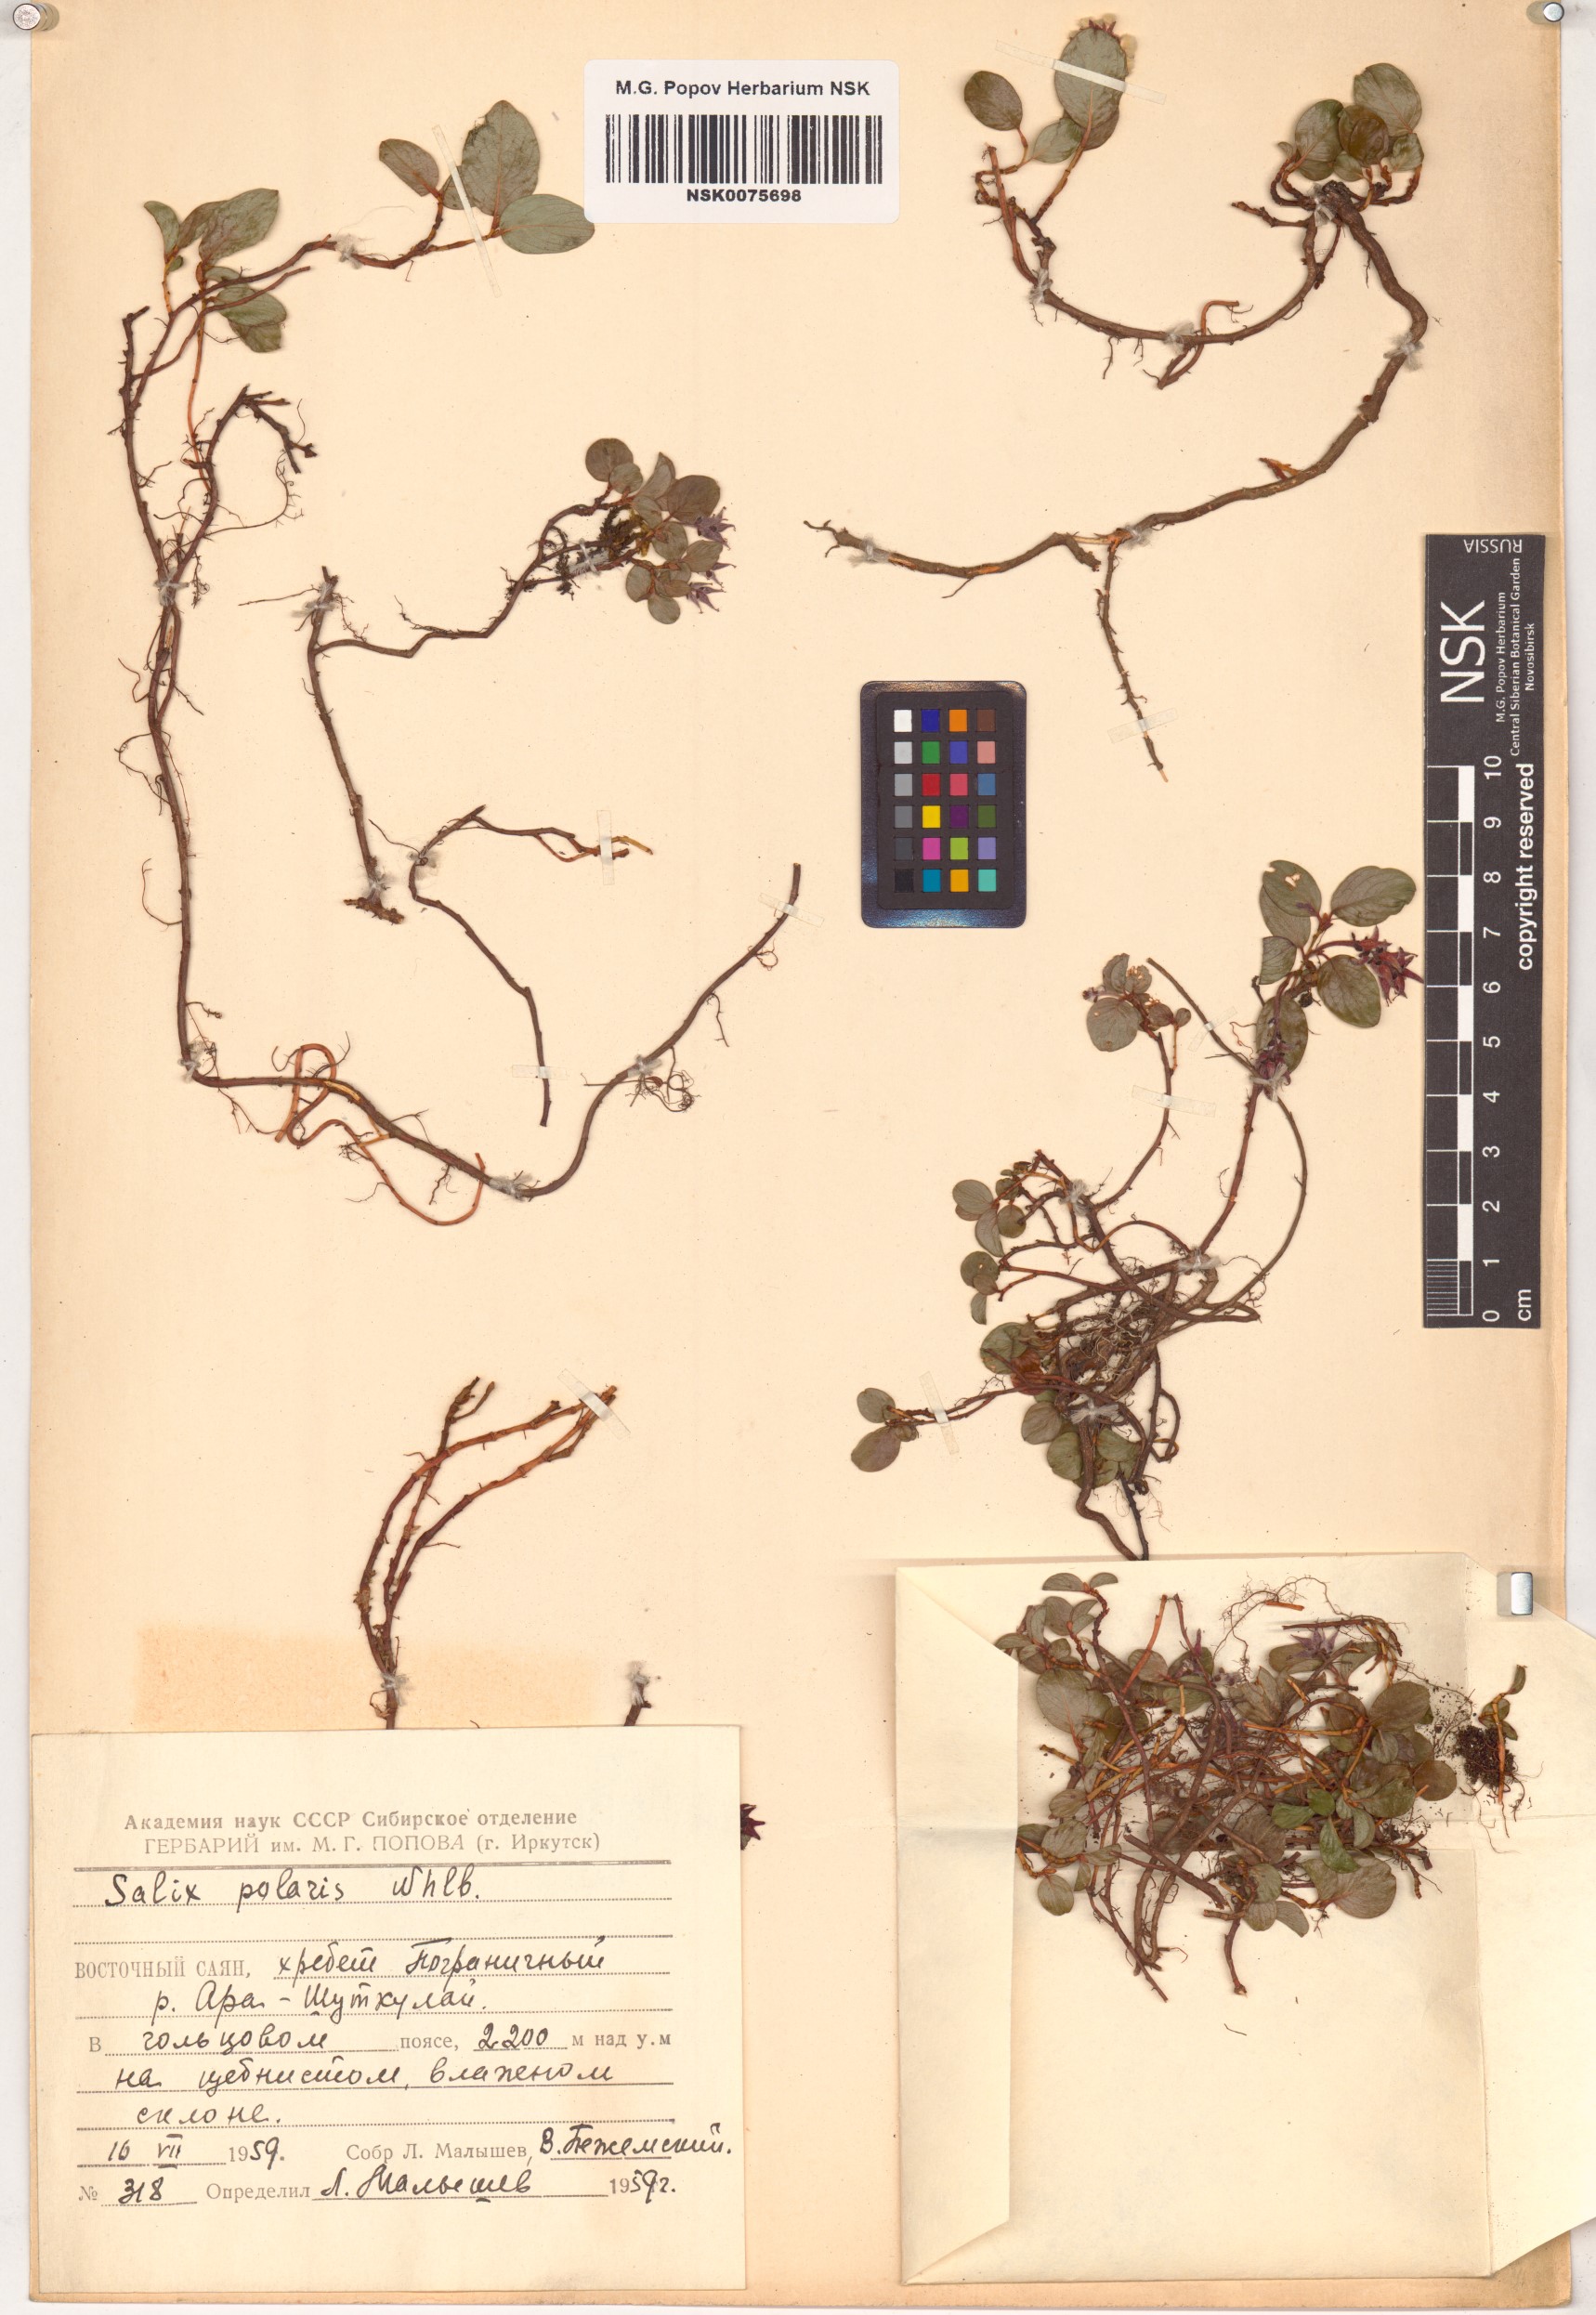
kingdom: Plantae
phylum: Tracheophyta
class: Magnoliopsida
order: Malpighiales
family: Salicaceae
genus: Salix
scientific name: Salix polaris
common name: Polar willow
